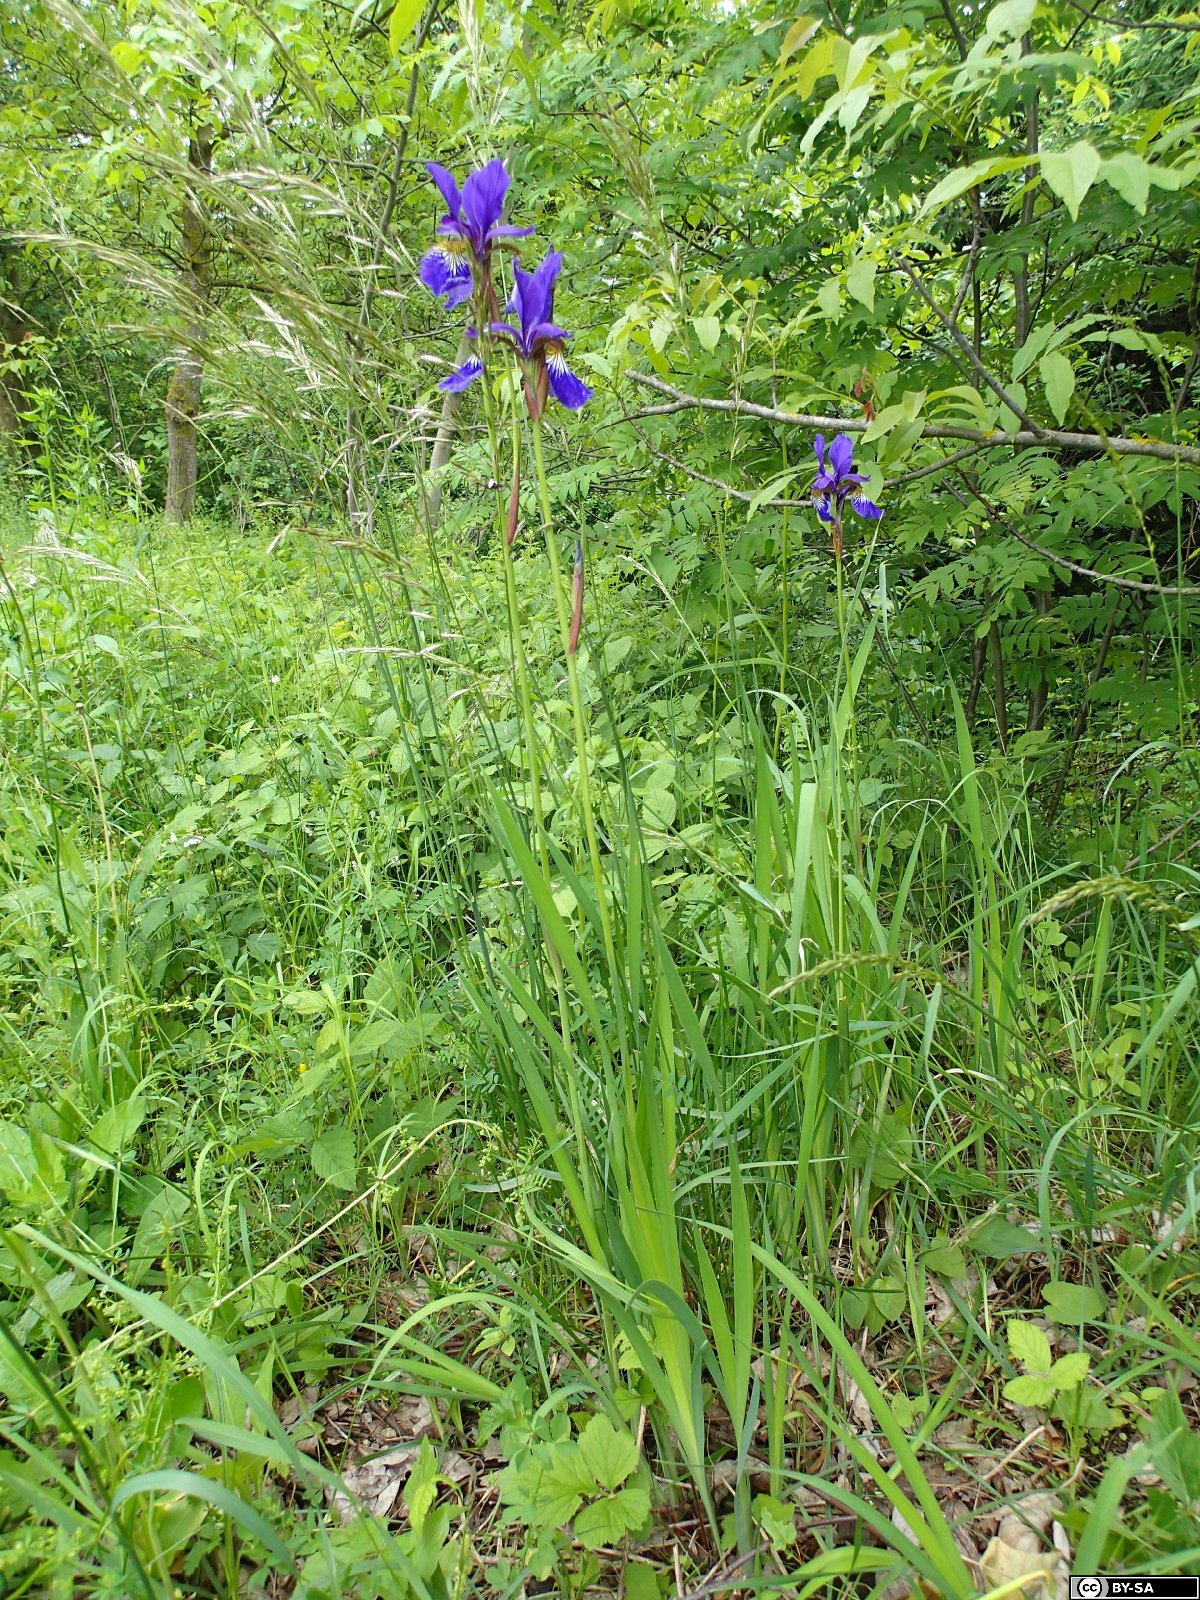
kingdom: Plantae
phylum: Tracheophyta
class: Liliopsida
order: Asparagales
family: Iridaceae
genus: Iris
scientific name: Iris sanguinea
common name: Blood iris
